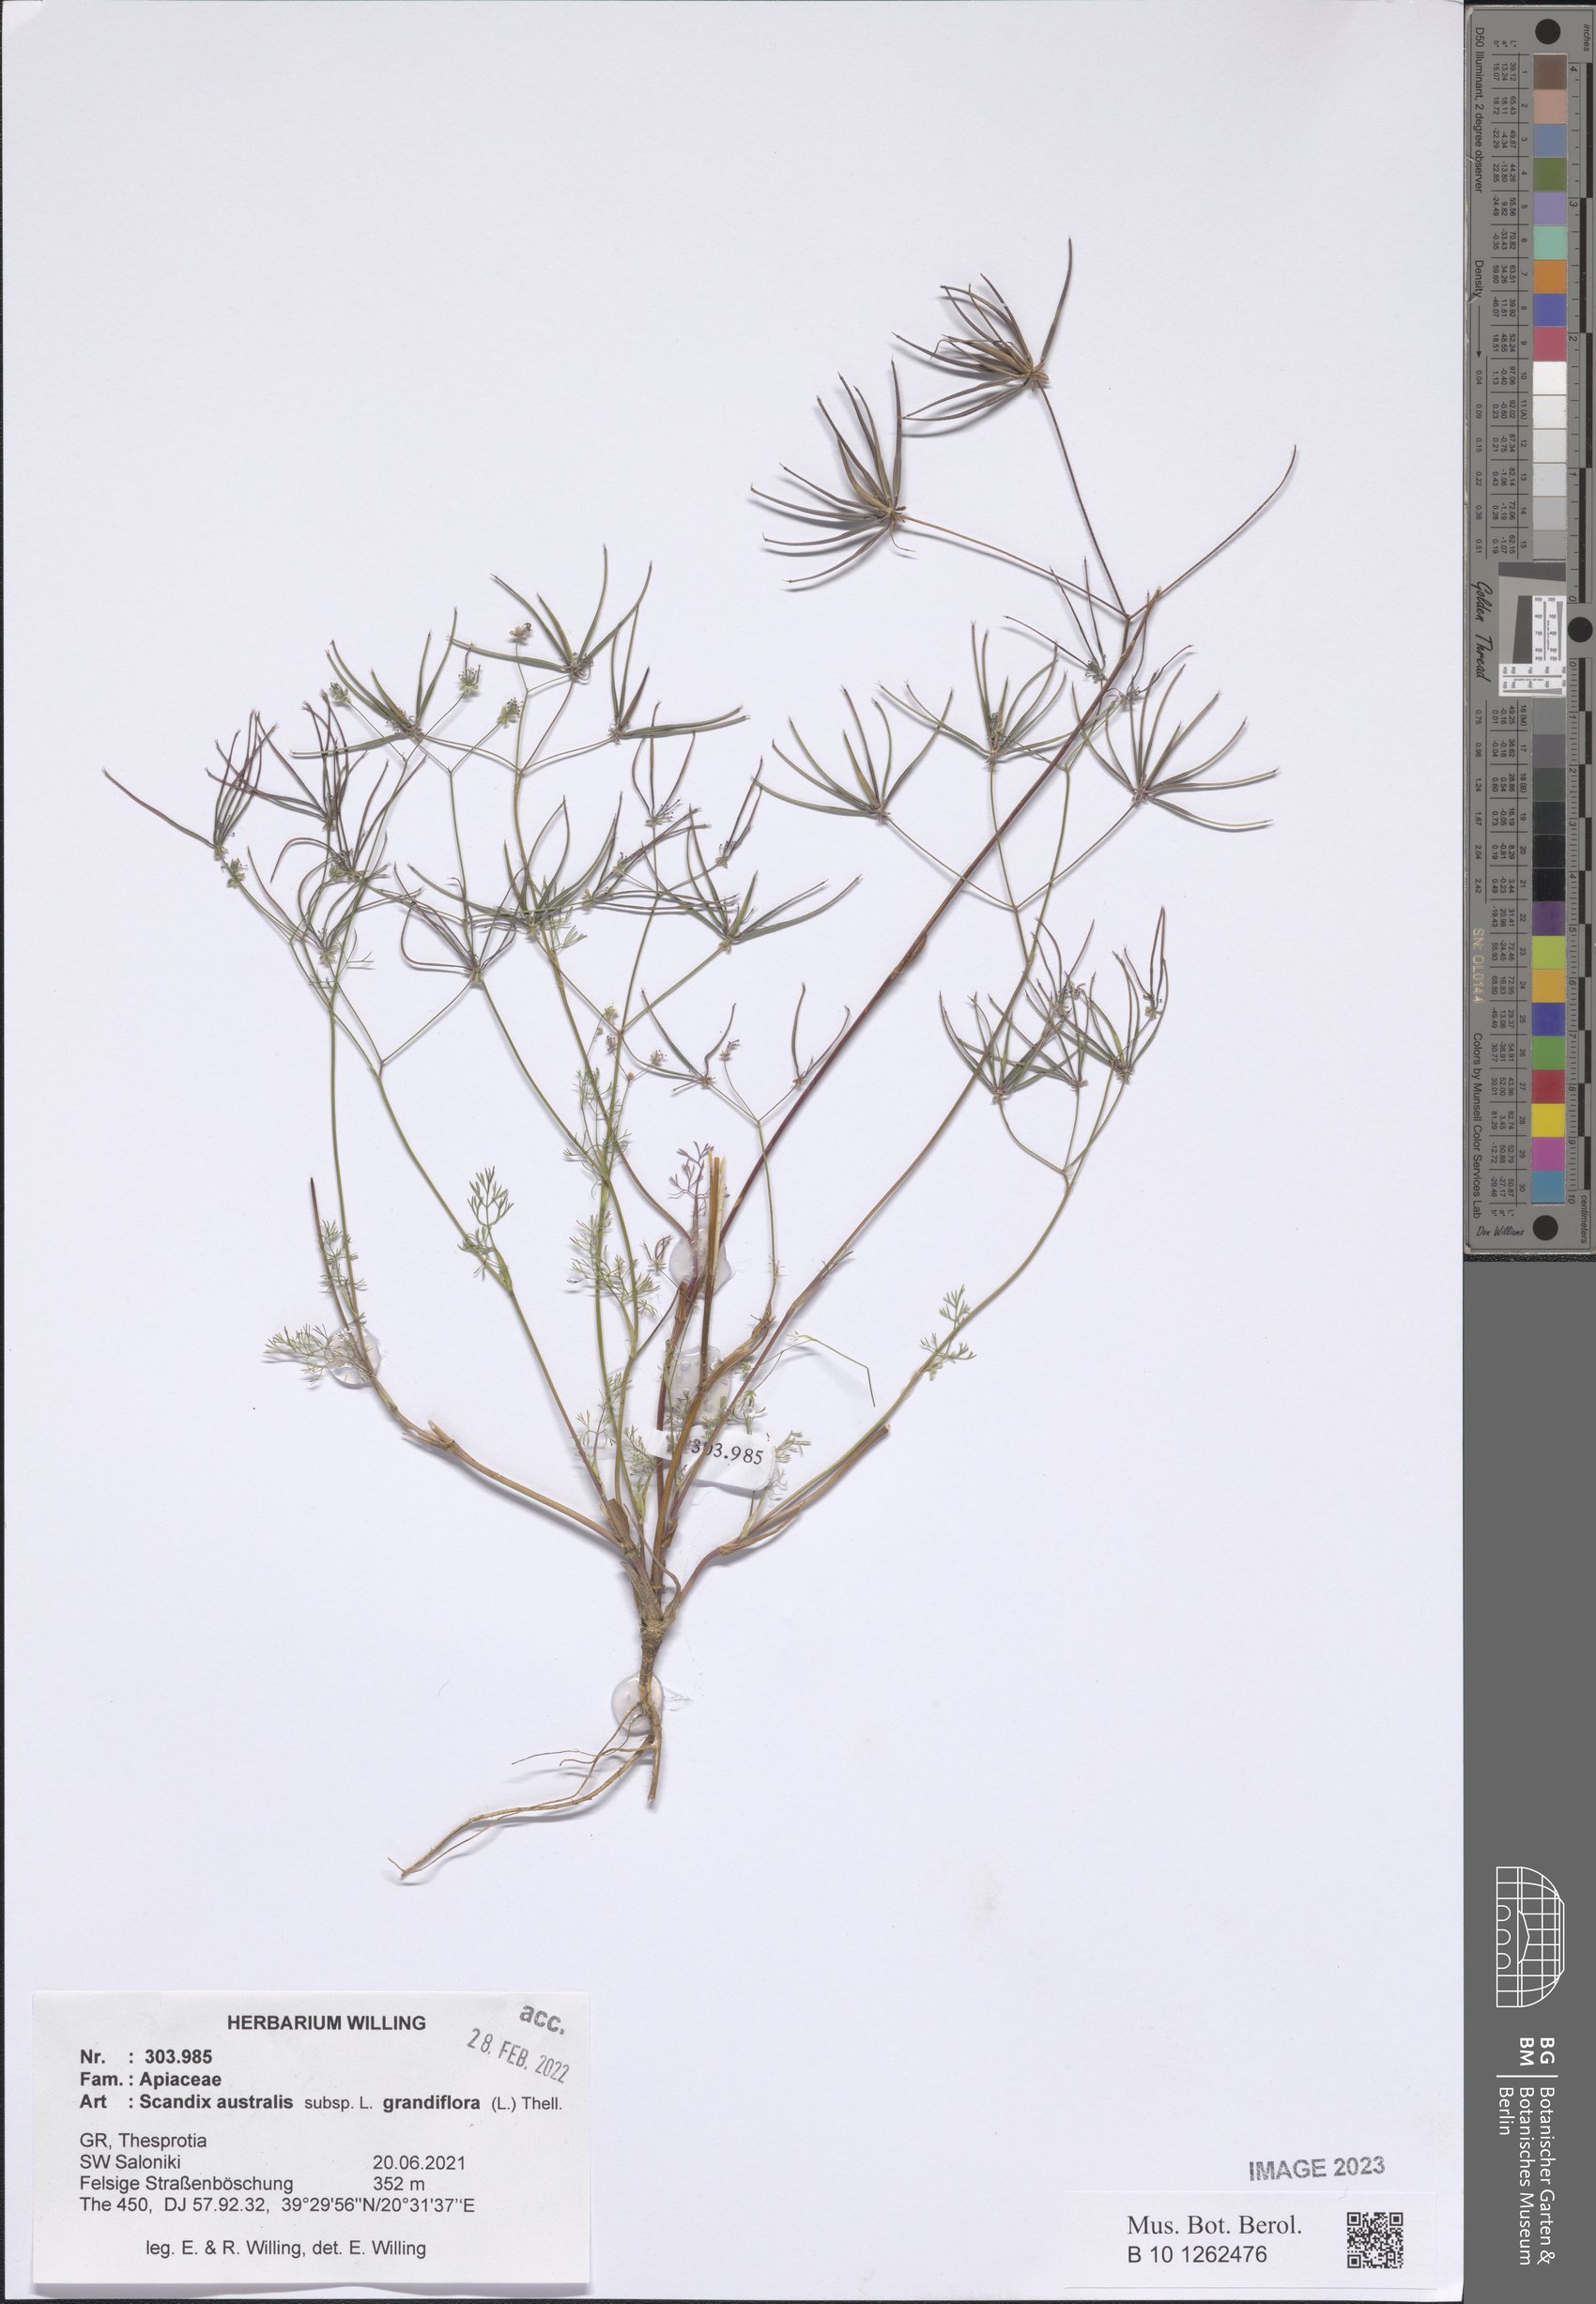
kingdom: Plantae
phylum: Tracheophyta
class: Magnoliopsida
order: Apiales
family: Apiaceae
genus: Scandix
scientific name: Scandix australis
